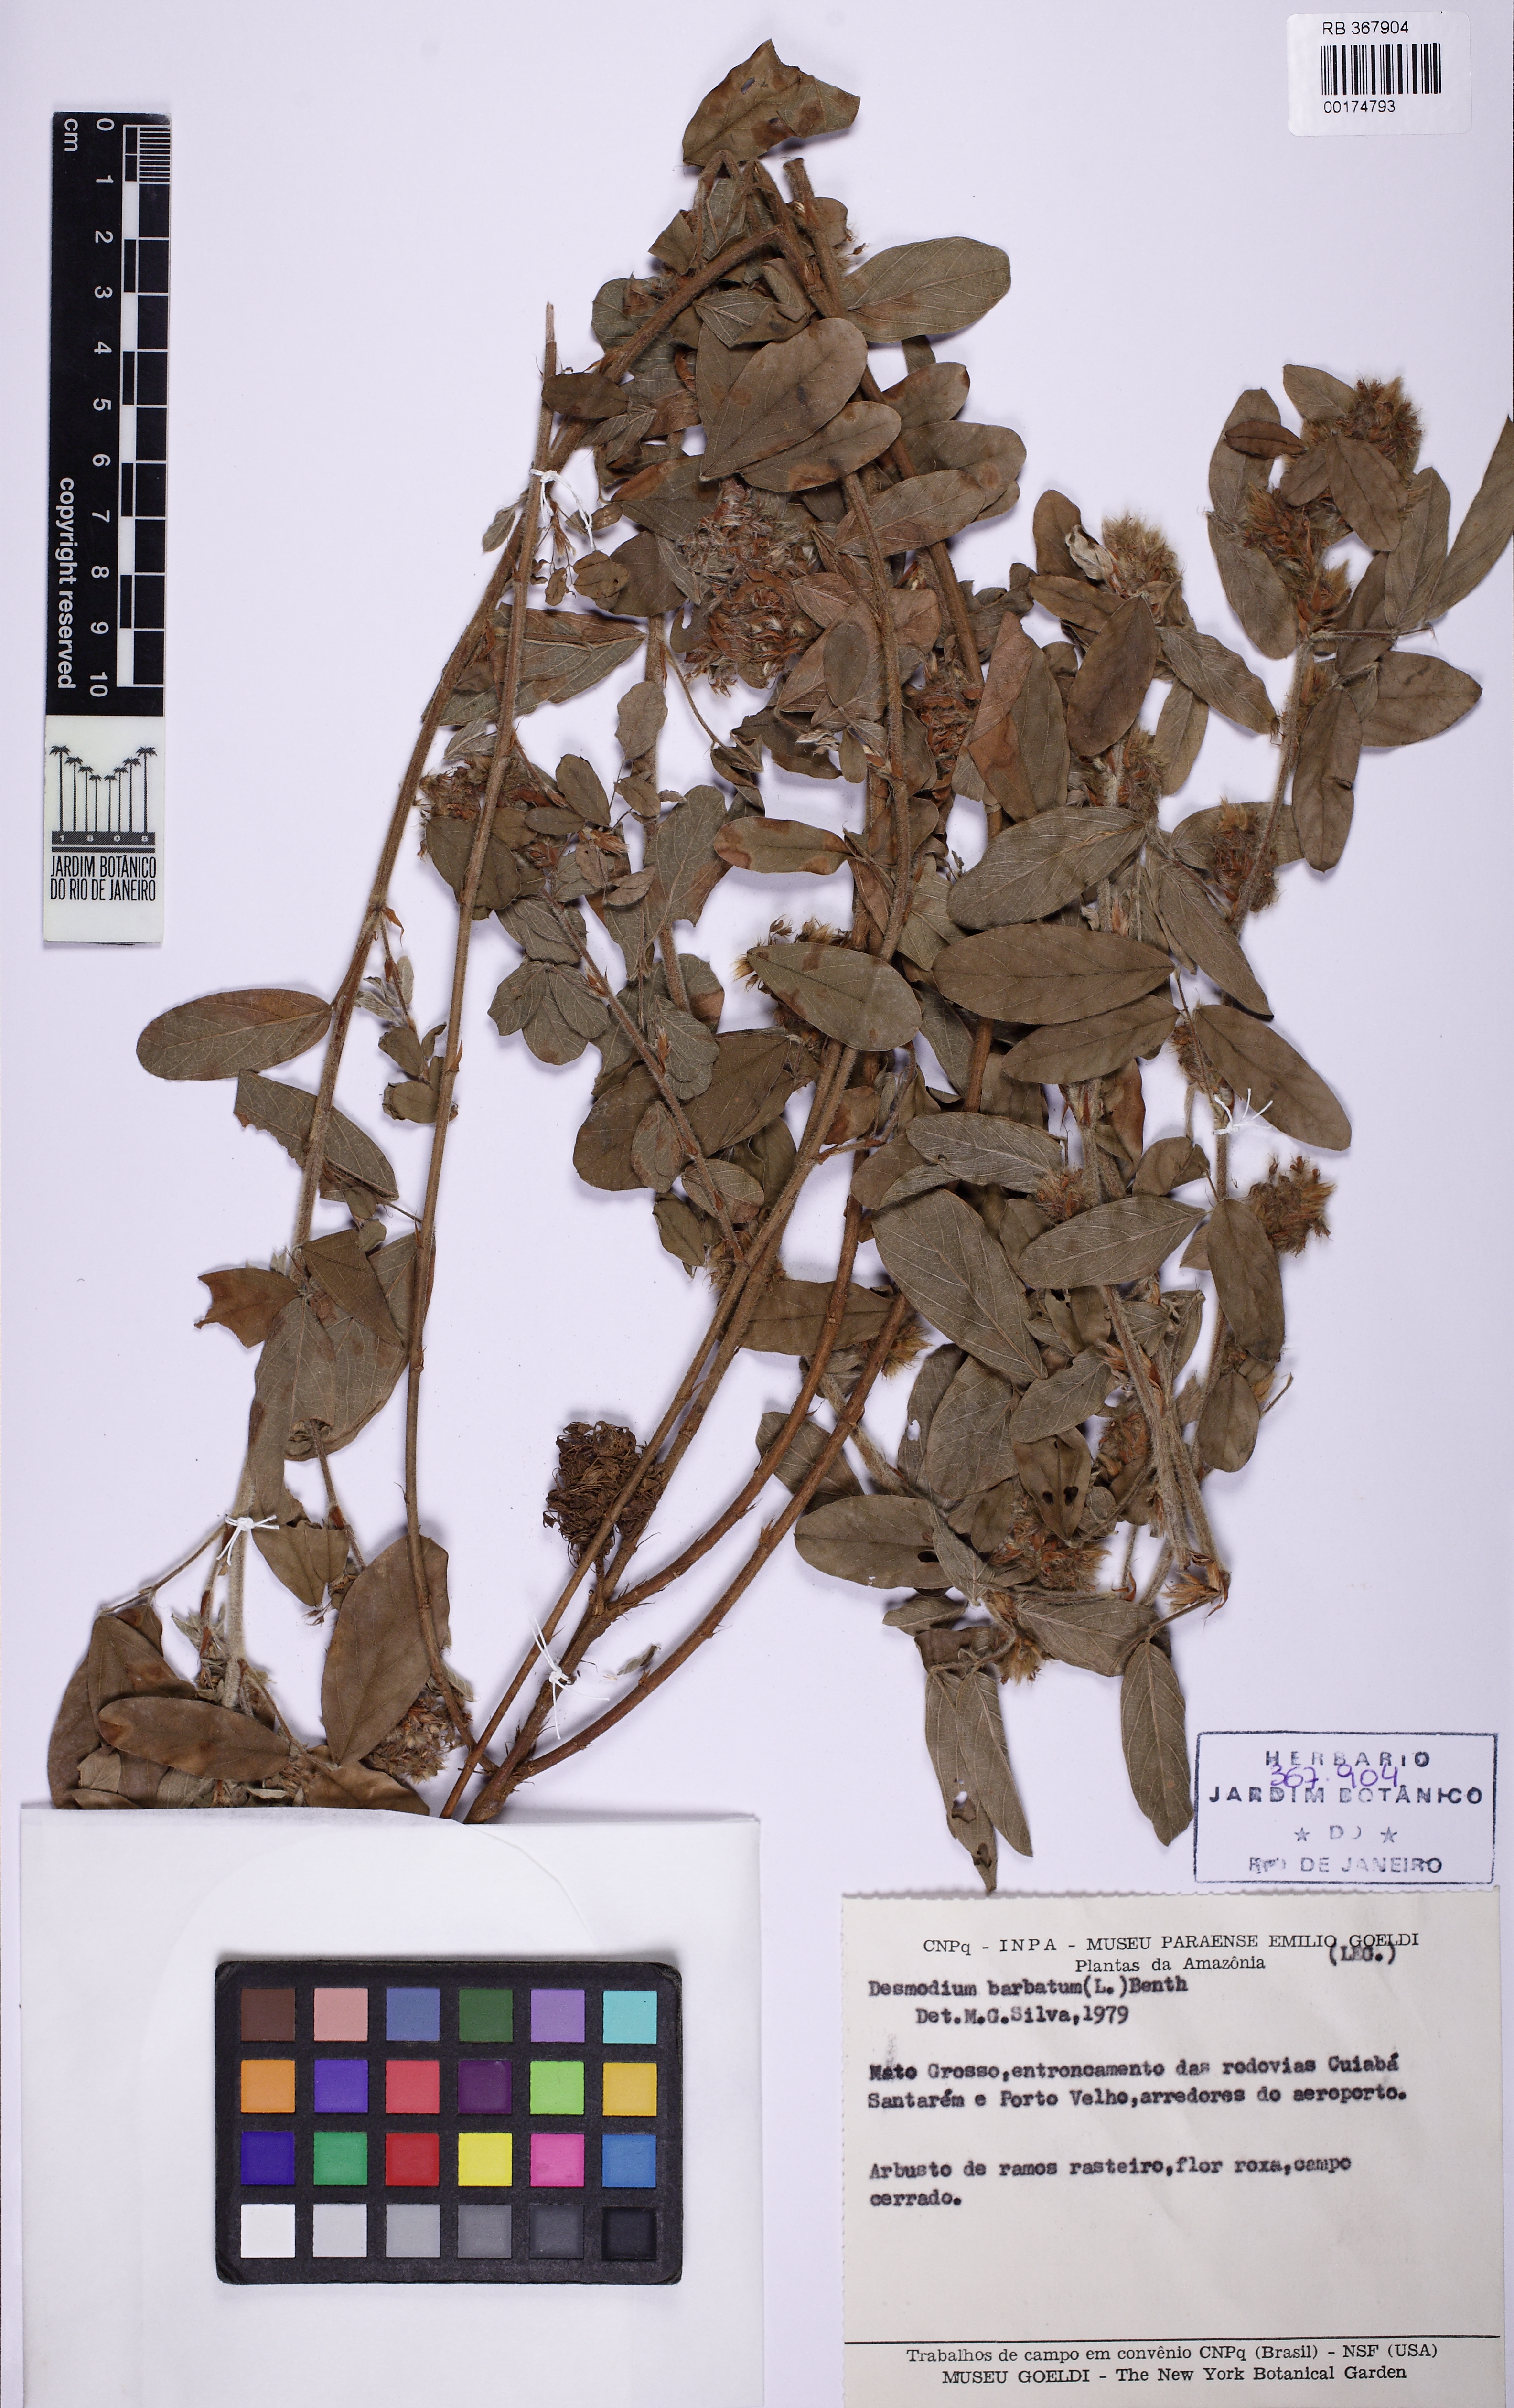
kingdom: Plantae
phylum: Tracheophyta
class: Magnoliopsida
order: Fabales
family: Fabaceae
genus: Grona
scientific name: Grona barbata
